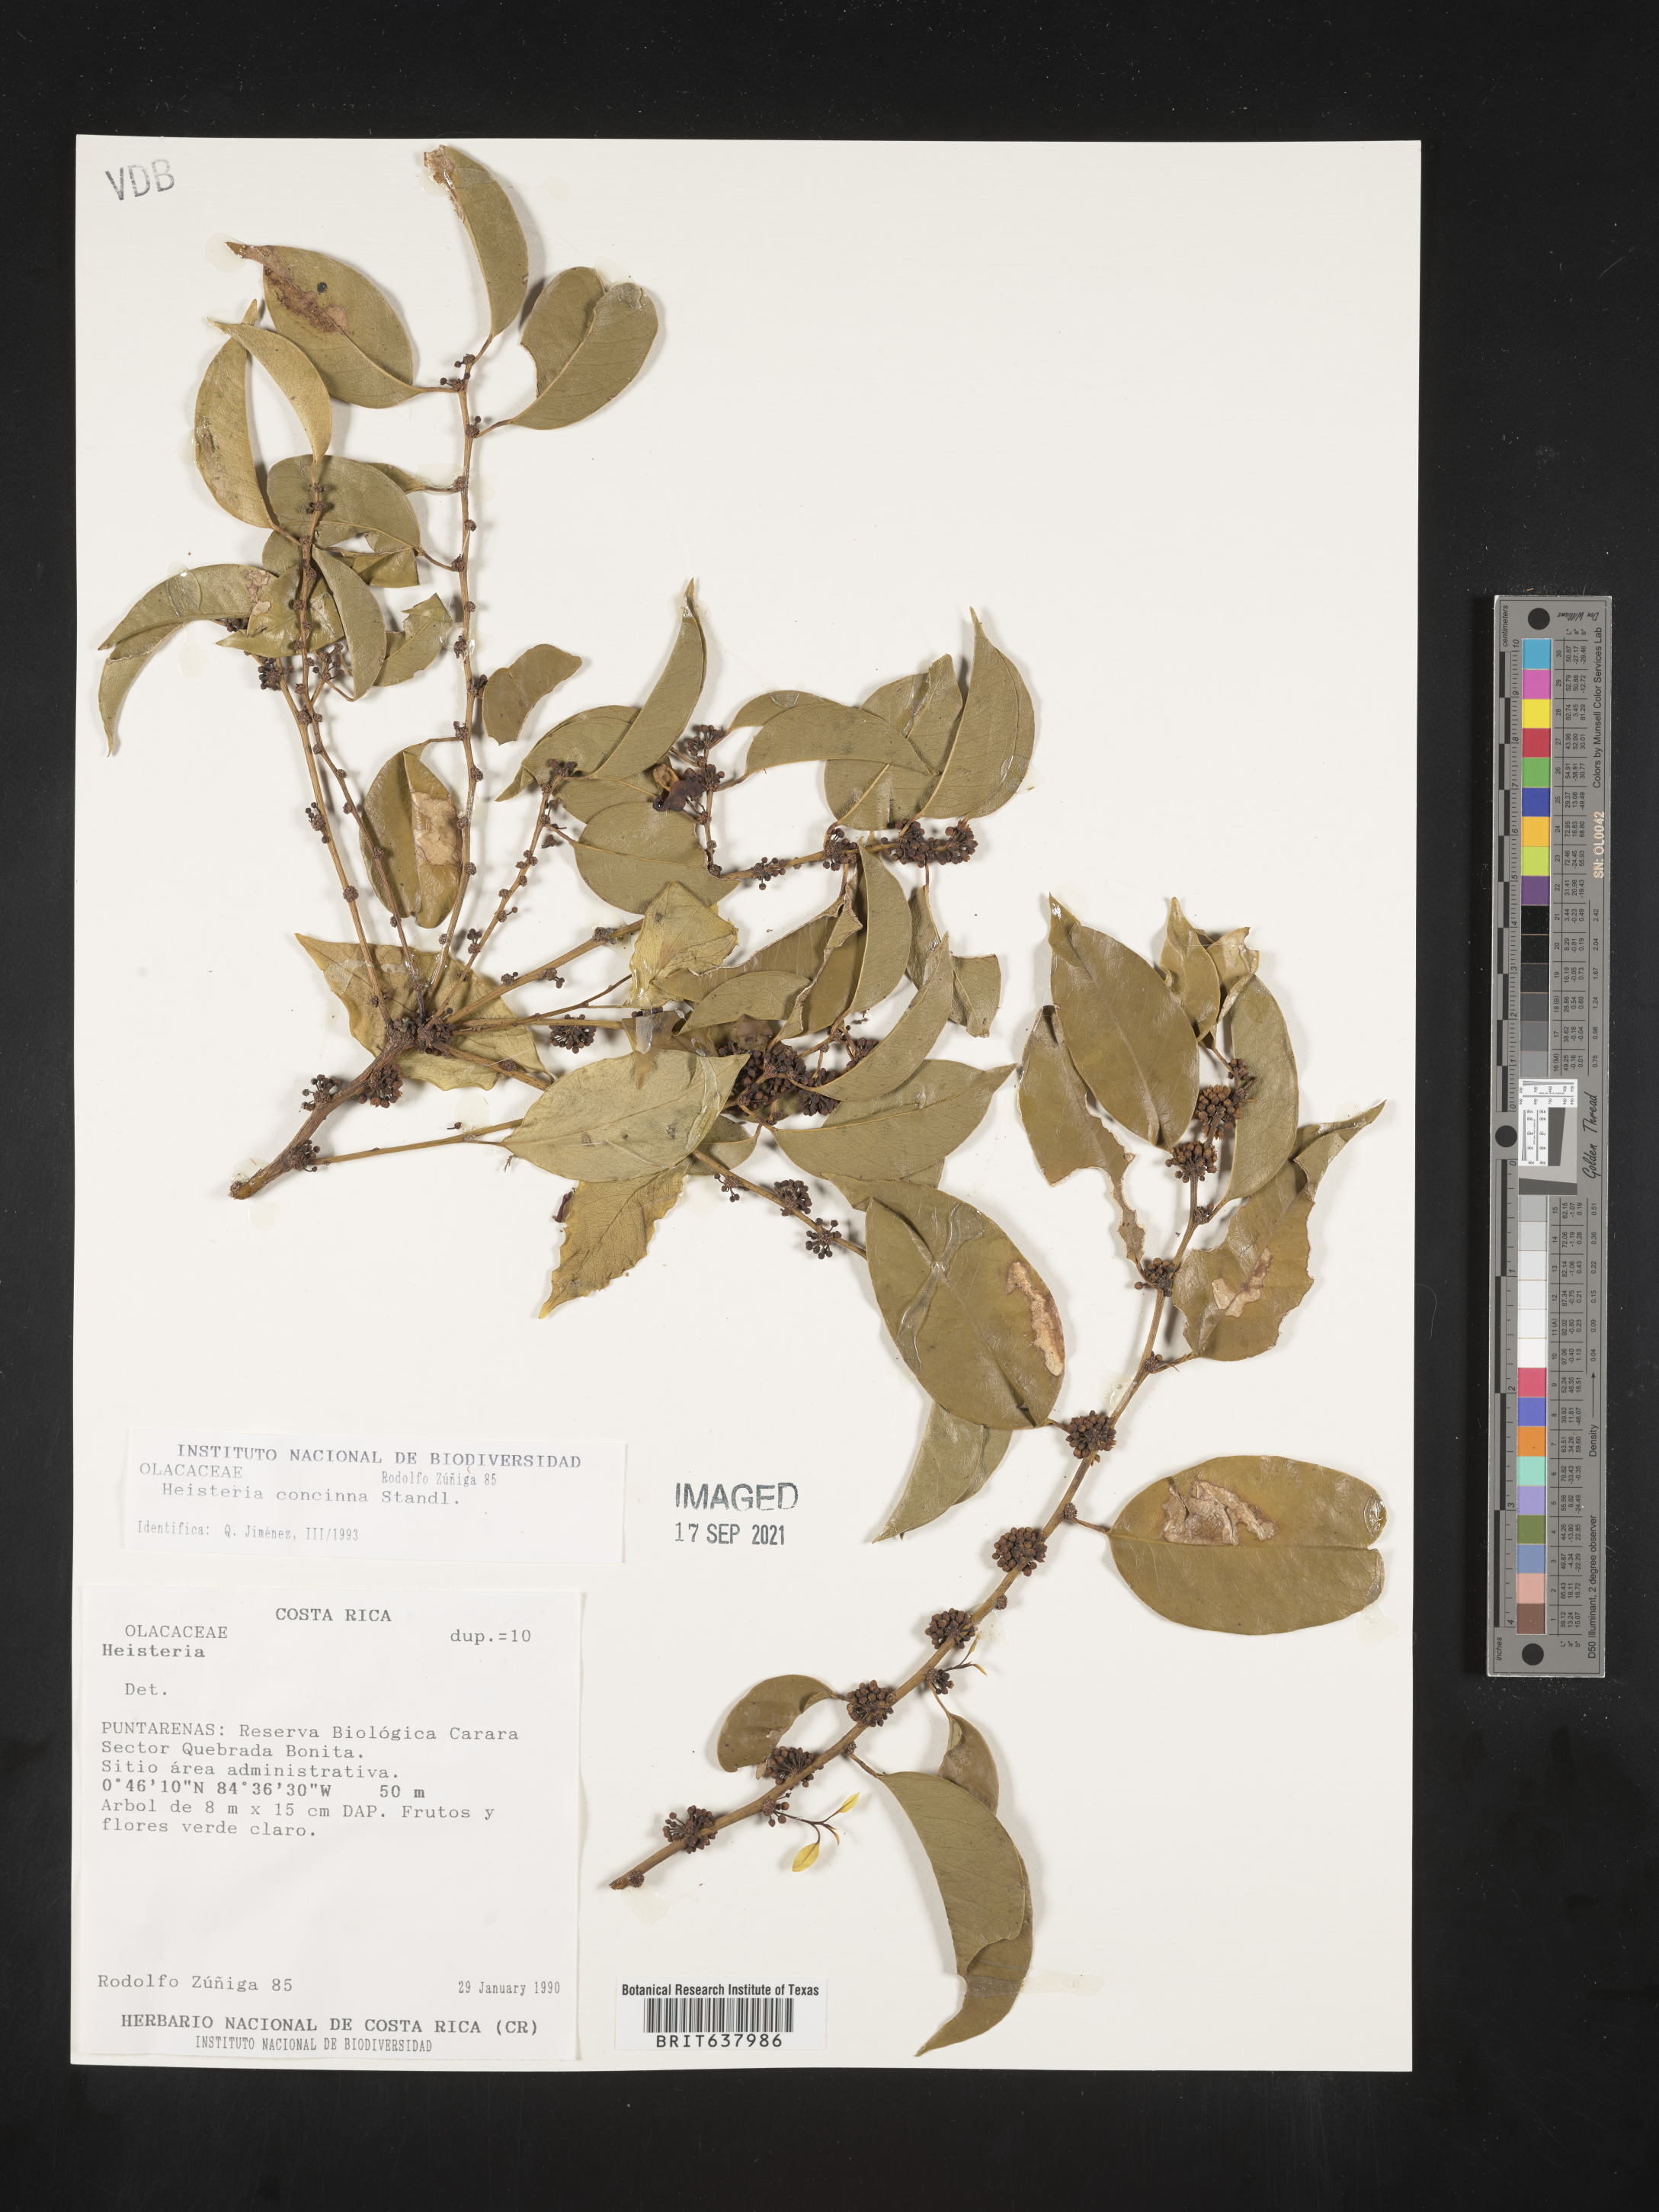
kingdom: Plantae
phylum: Tracheophyta
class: Magnoliopsida
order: Santalales
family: Erythropalaceae
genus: Heisteria
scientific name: Heisteria
